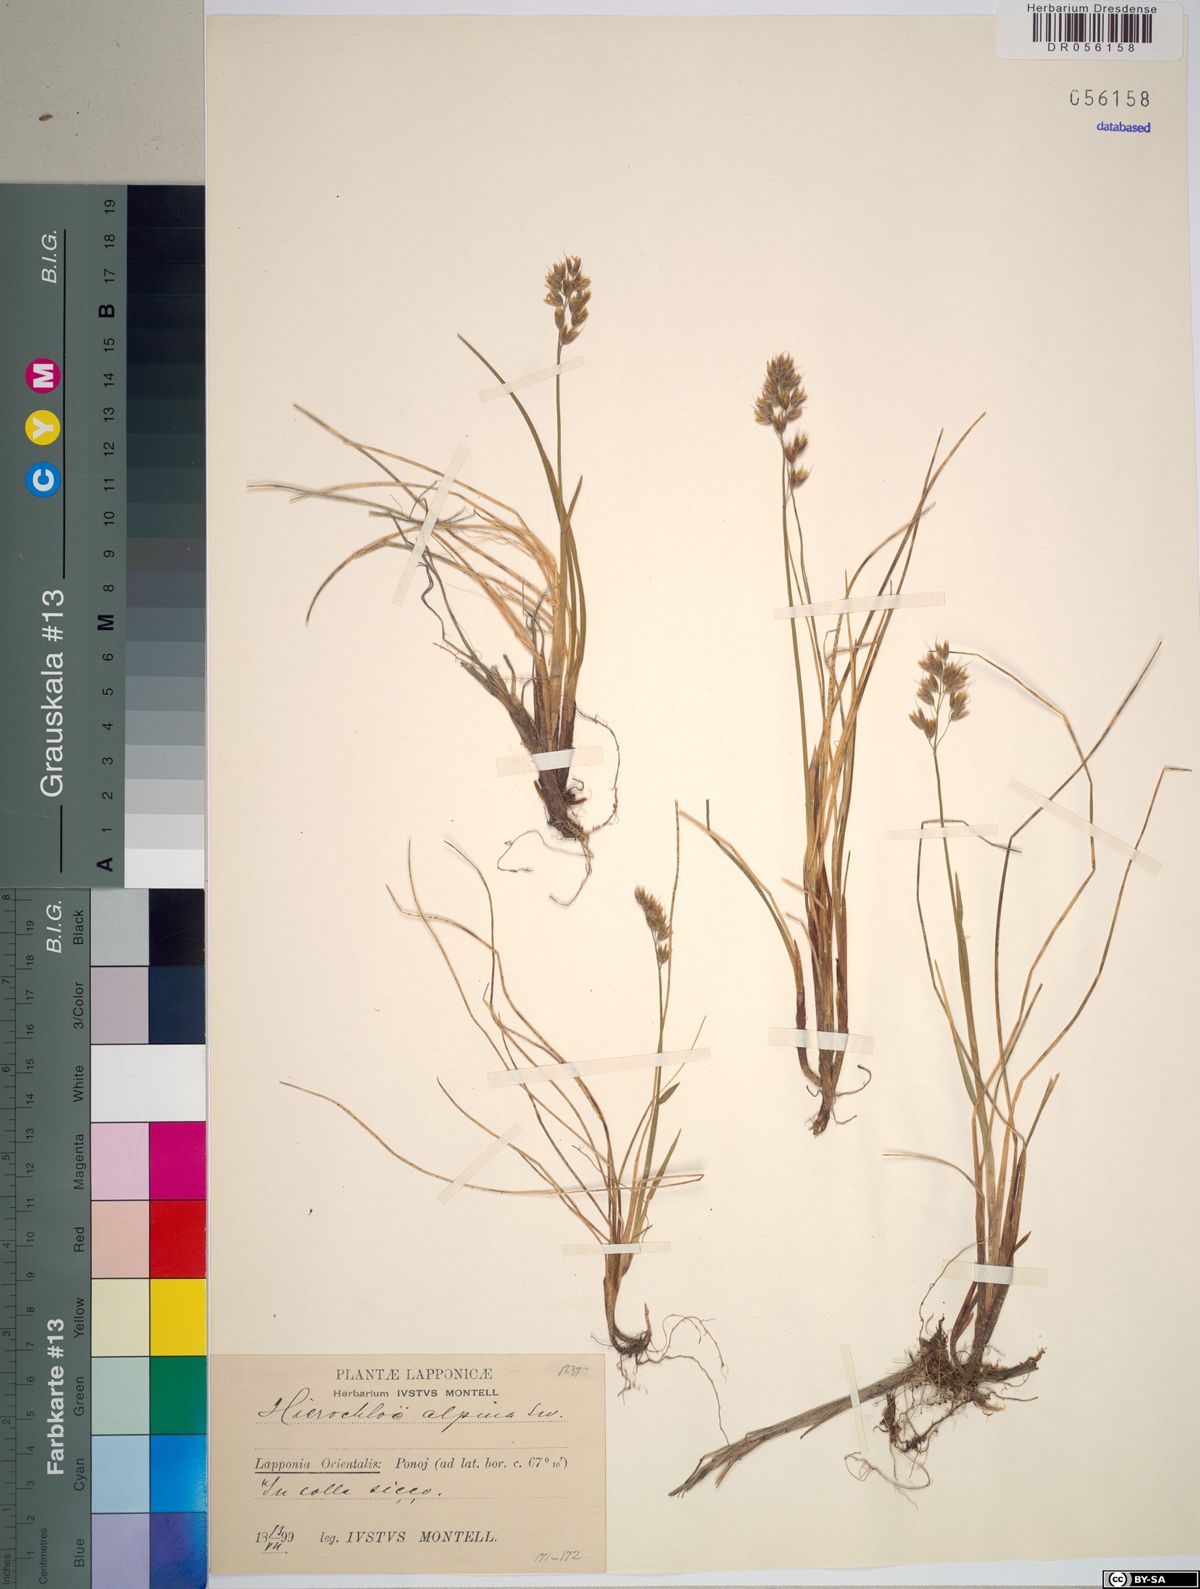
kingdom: Plantae
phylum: Tracheophyta
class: Liliopsida
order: Poales
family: Poaceae
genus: Anthoxanthum
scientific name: Anthoxanthum monticola
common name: Alpine sweetgrass
